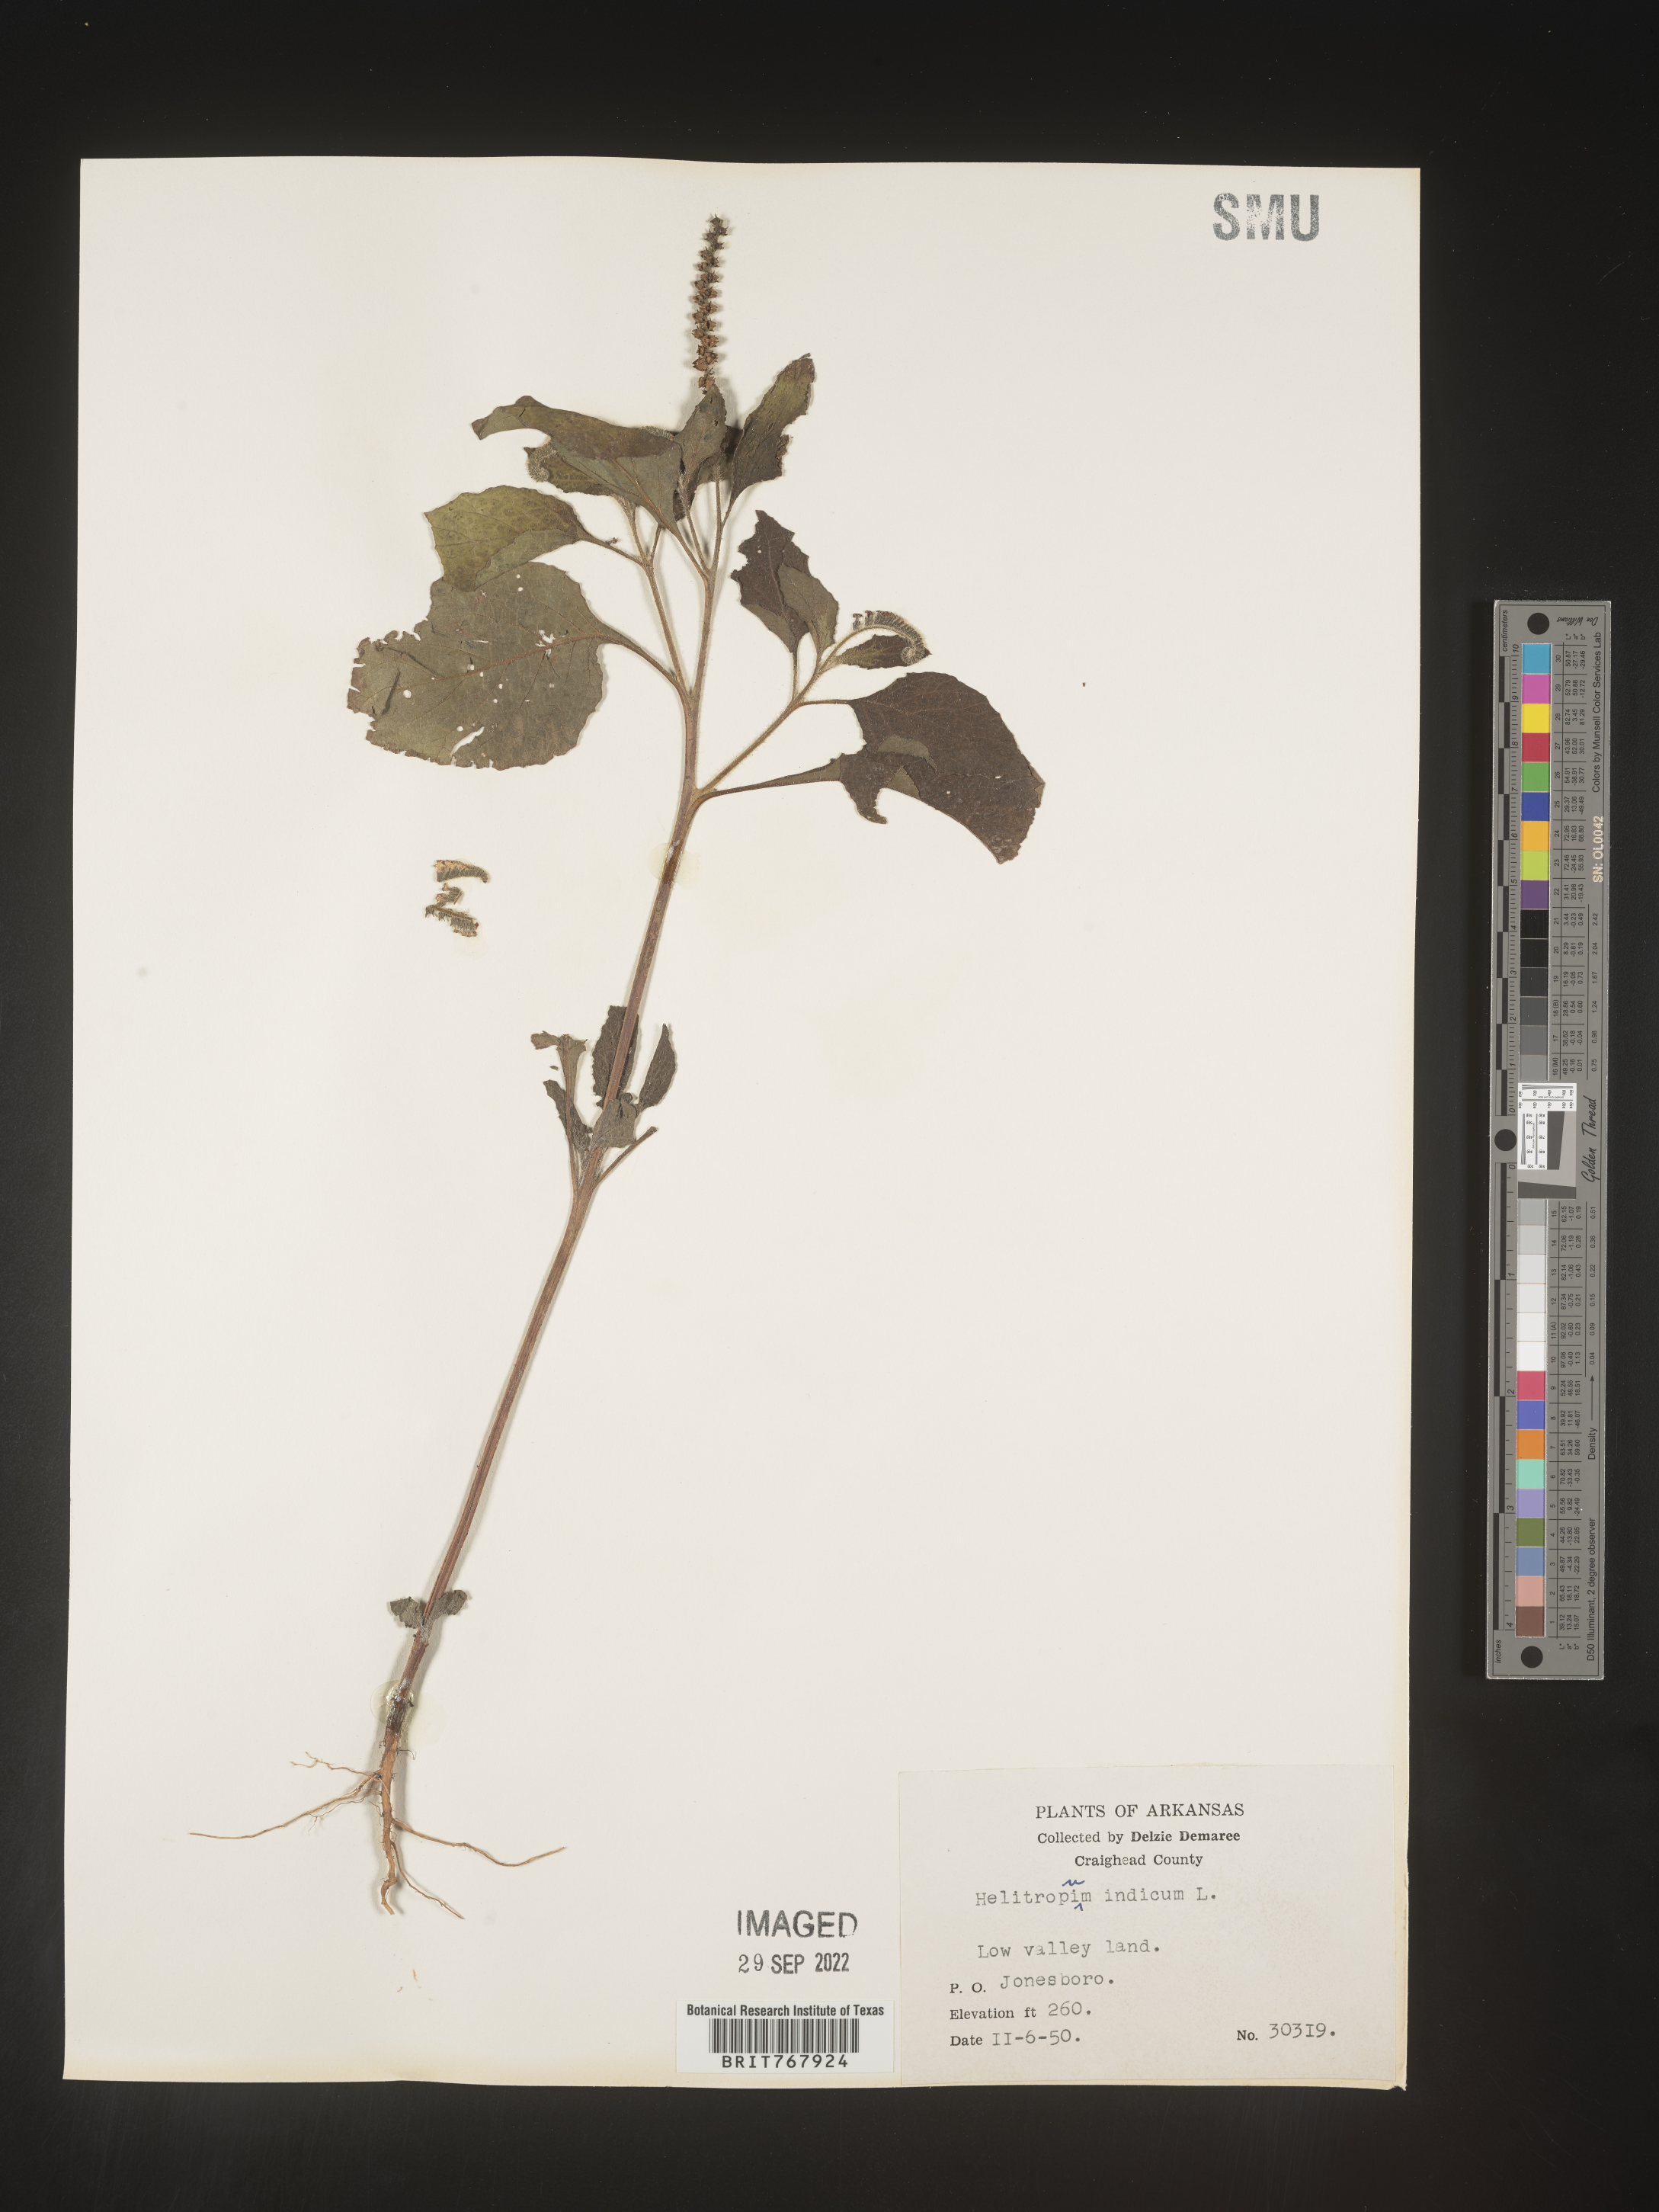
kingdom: Plantae
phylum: Tracheophyta
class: Magnoliopsida
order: Boraginales
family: Heliotropiaceae
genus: Heliotropium
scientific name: Heliotropium indicum
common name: Indian heliotrope
